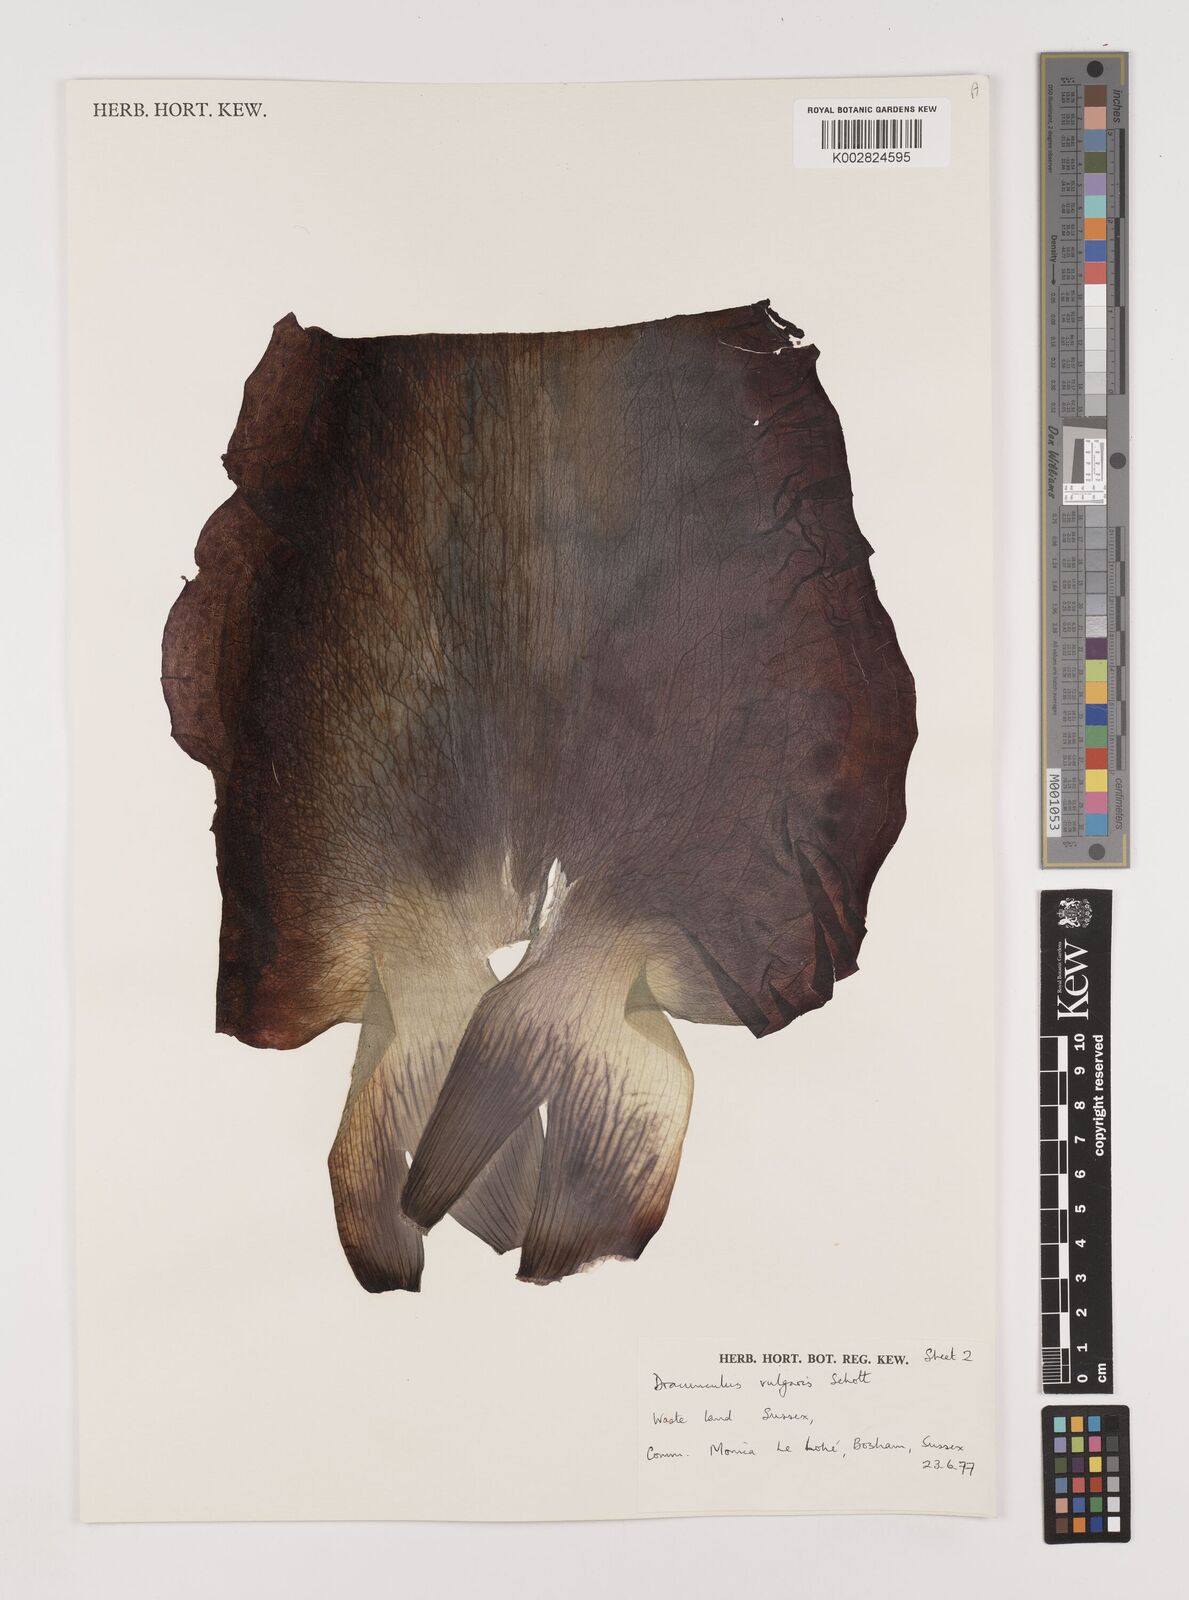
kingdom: Plantae
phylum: Tracheophyta
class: Liliopsida
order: Alismatales
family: Araceae
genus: Dracunculus
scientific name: Dracunculus vulgaris
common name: Dragon arum
